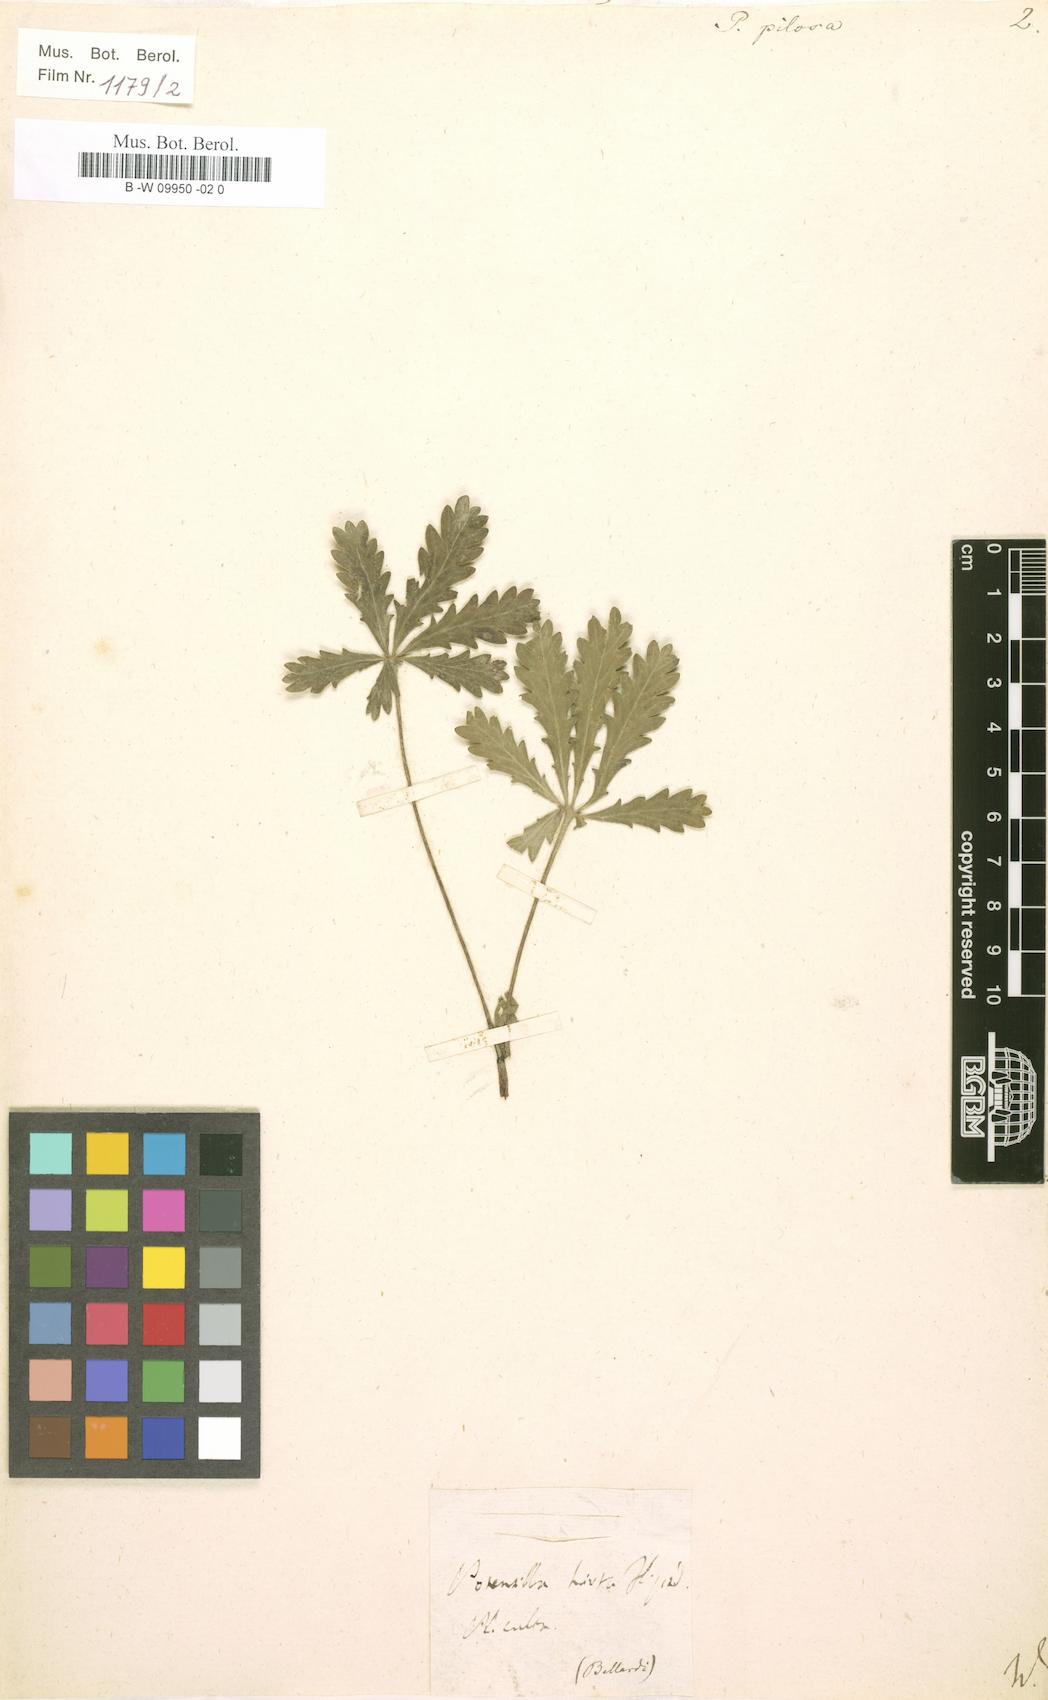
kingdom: Plantae
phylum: Tracheophyta
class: Magnoliopsida
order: Rosales
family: Rosaceae
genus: Potentilla
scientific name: Potentilla
